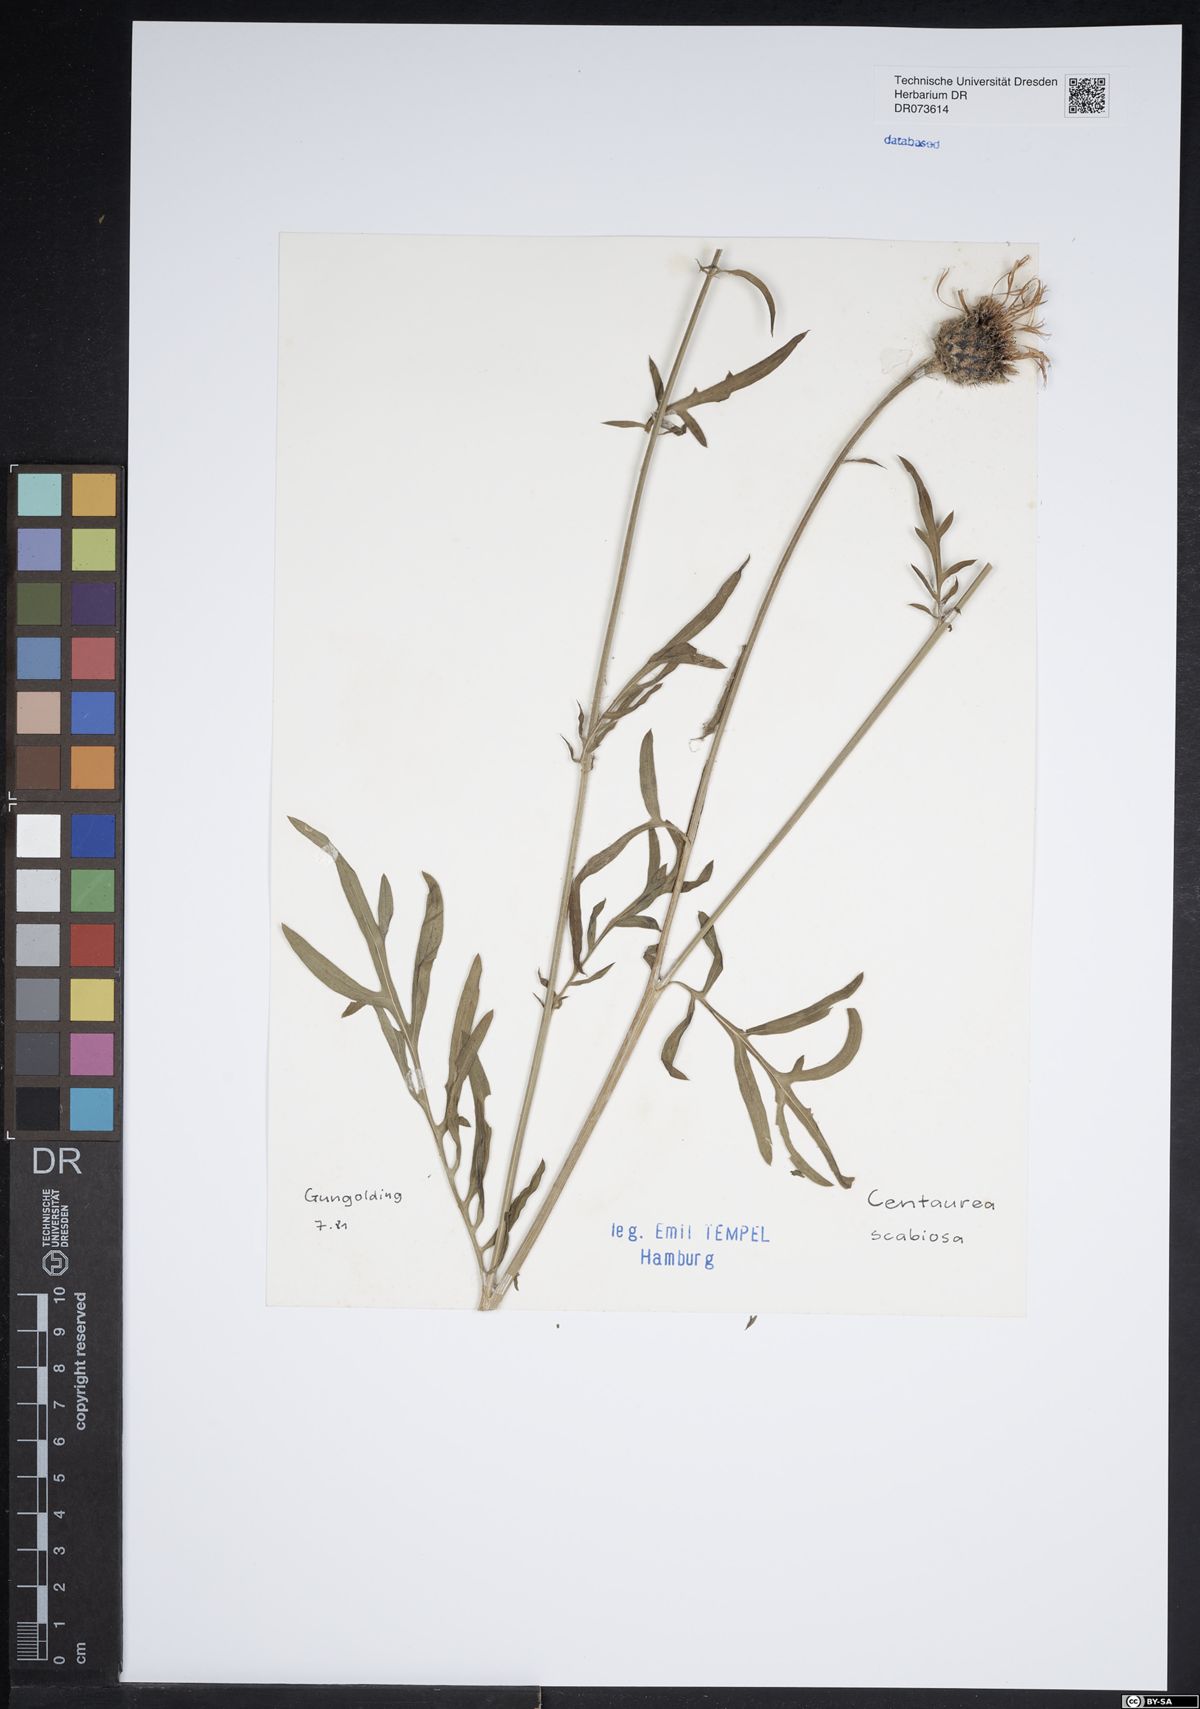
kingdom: Plantae
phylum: Tracheophyta
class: Magnoliopsida
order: Asterales
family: Asteraceae
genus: Centaurea
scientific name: Centaurea scabiosa
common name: Greater knapweed
